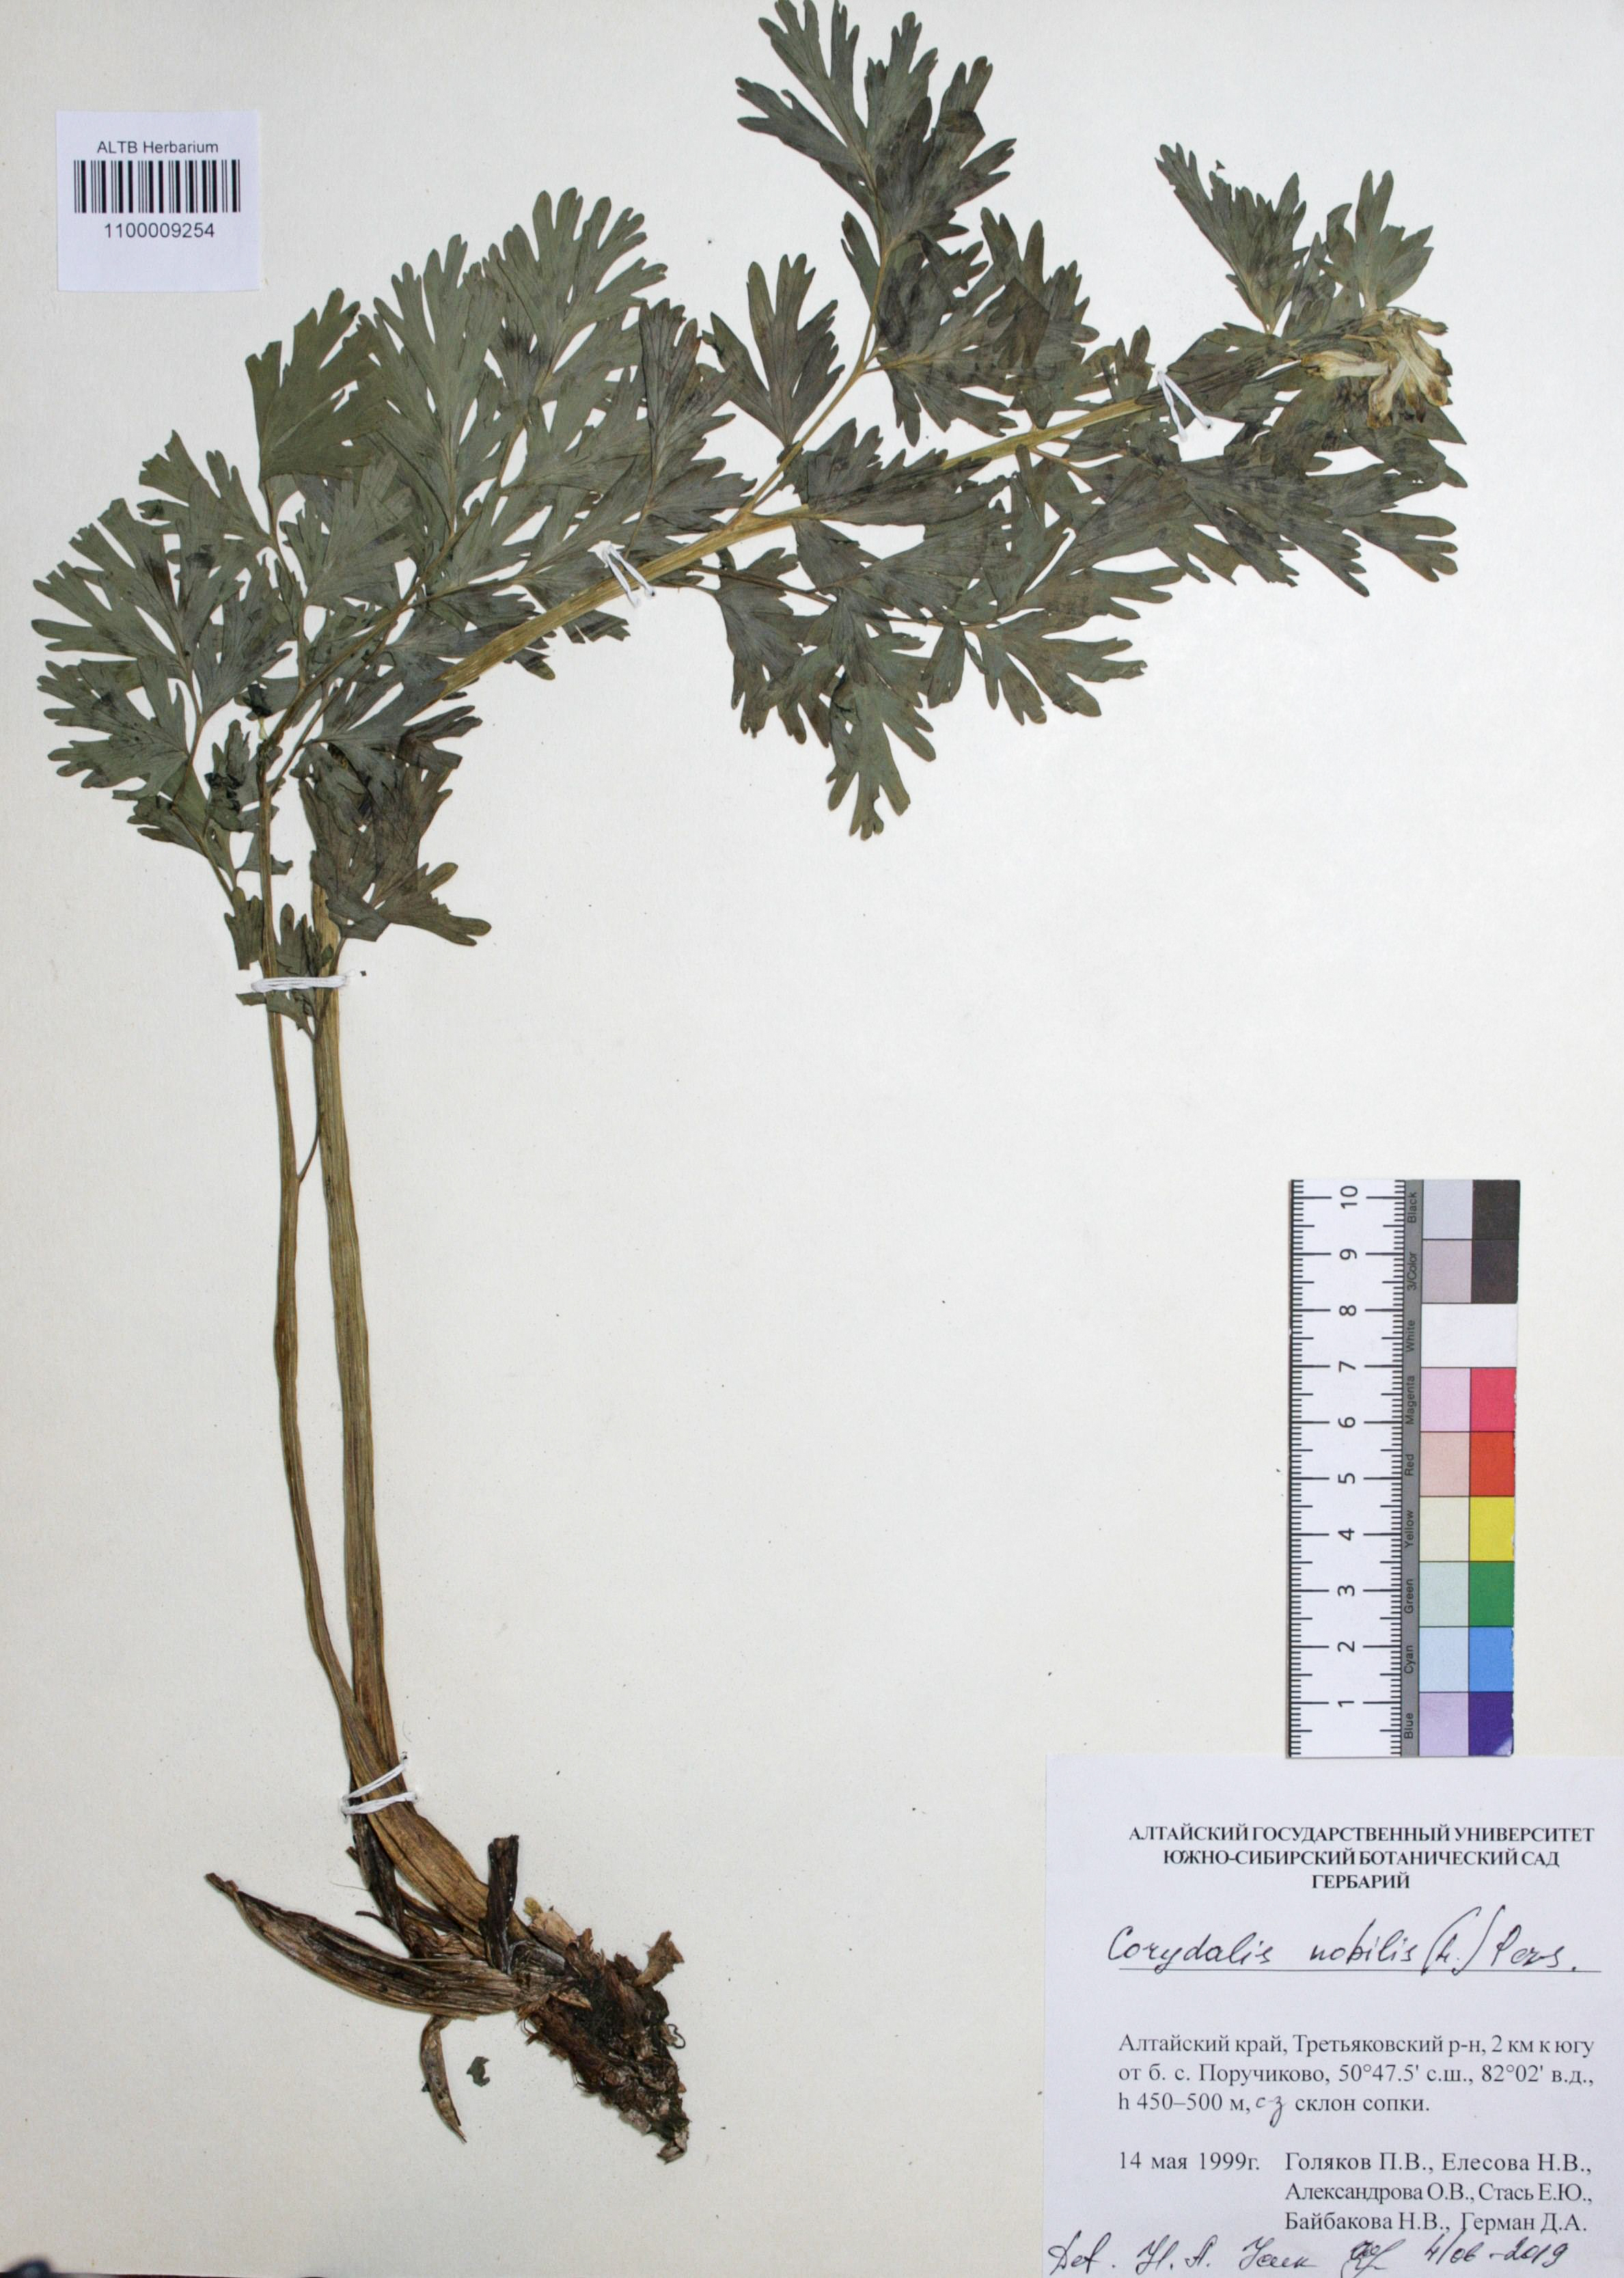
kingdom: Plantae
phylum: Tracheophyta
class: Magnoliopsida
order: Ranunculales
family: Papaveraceae
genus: Corydalis
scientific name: Corydalis nobilis
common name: Siberian corydalis
